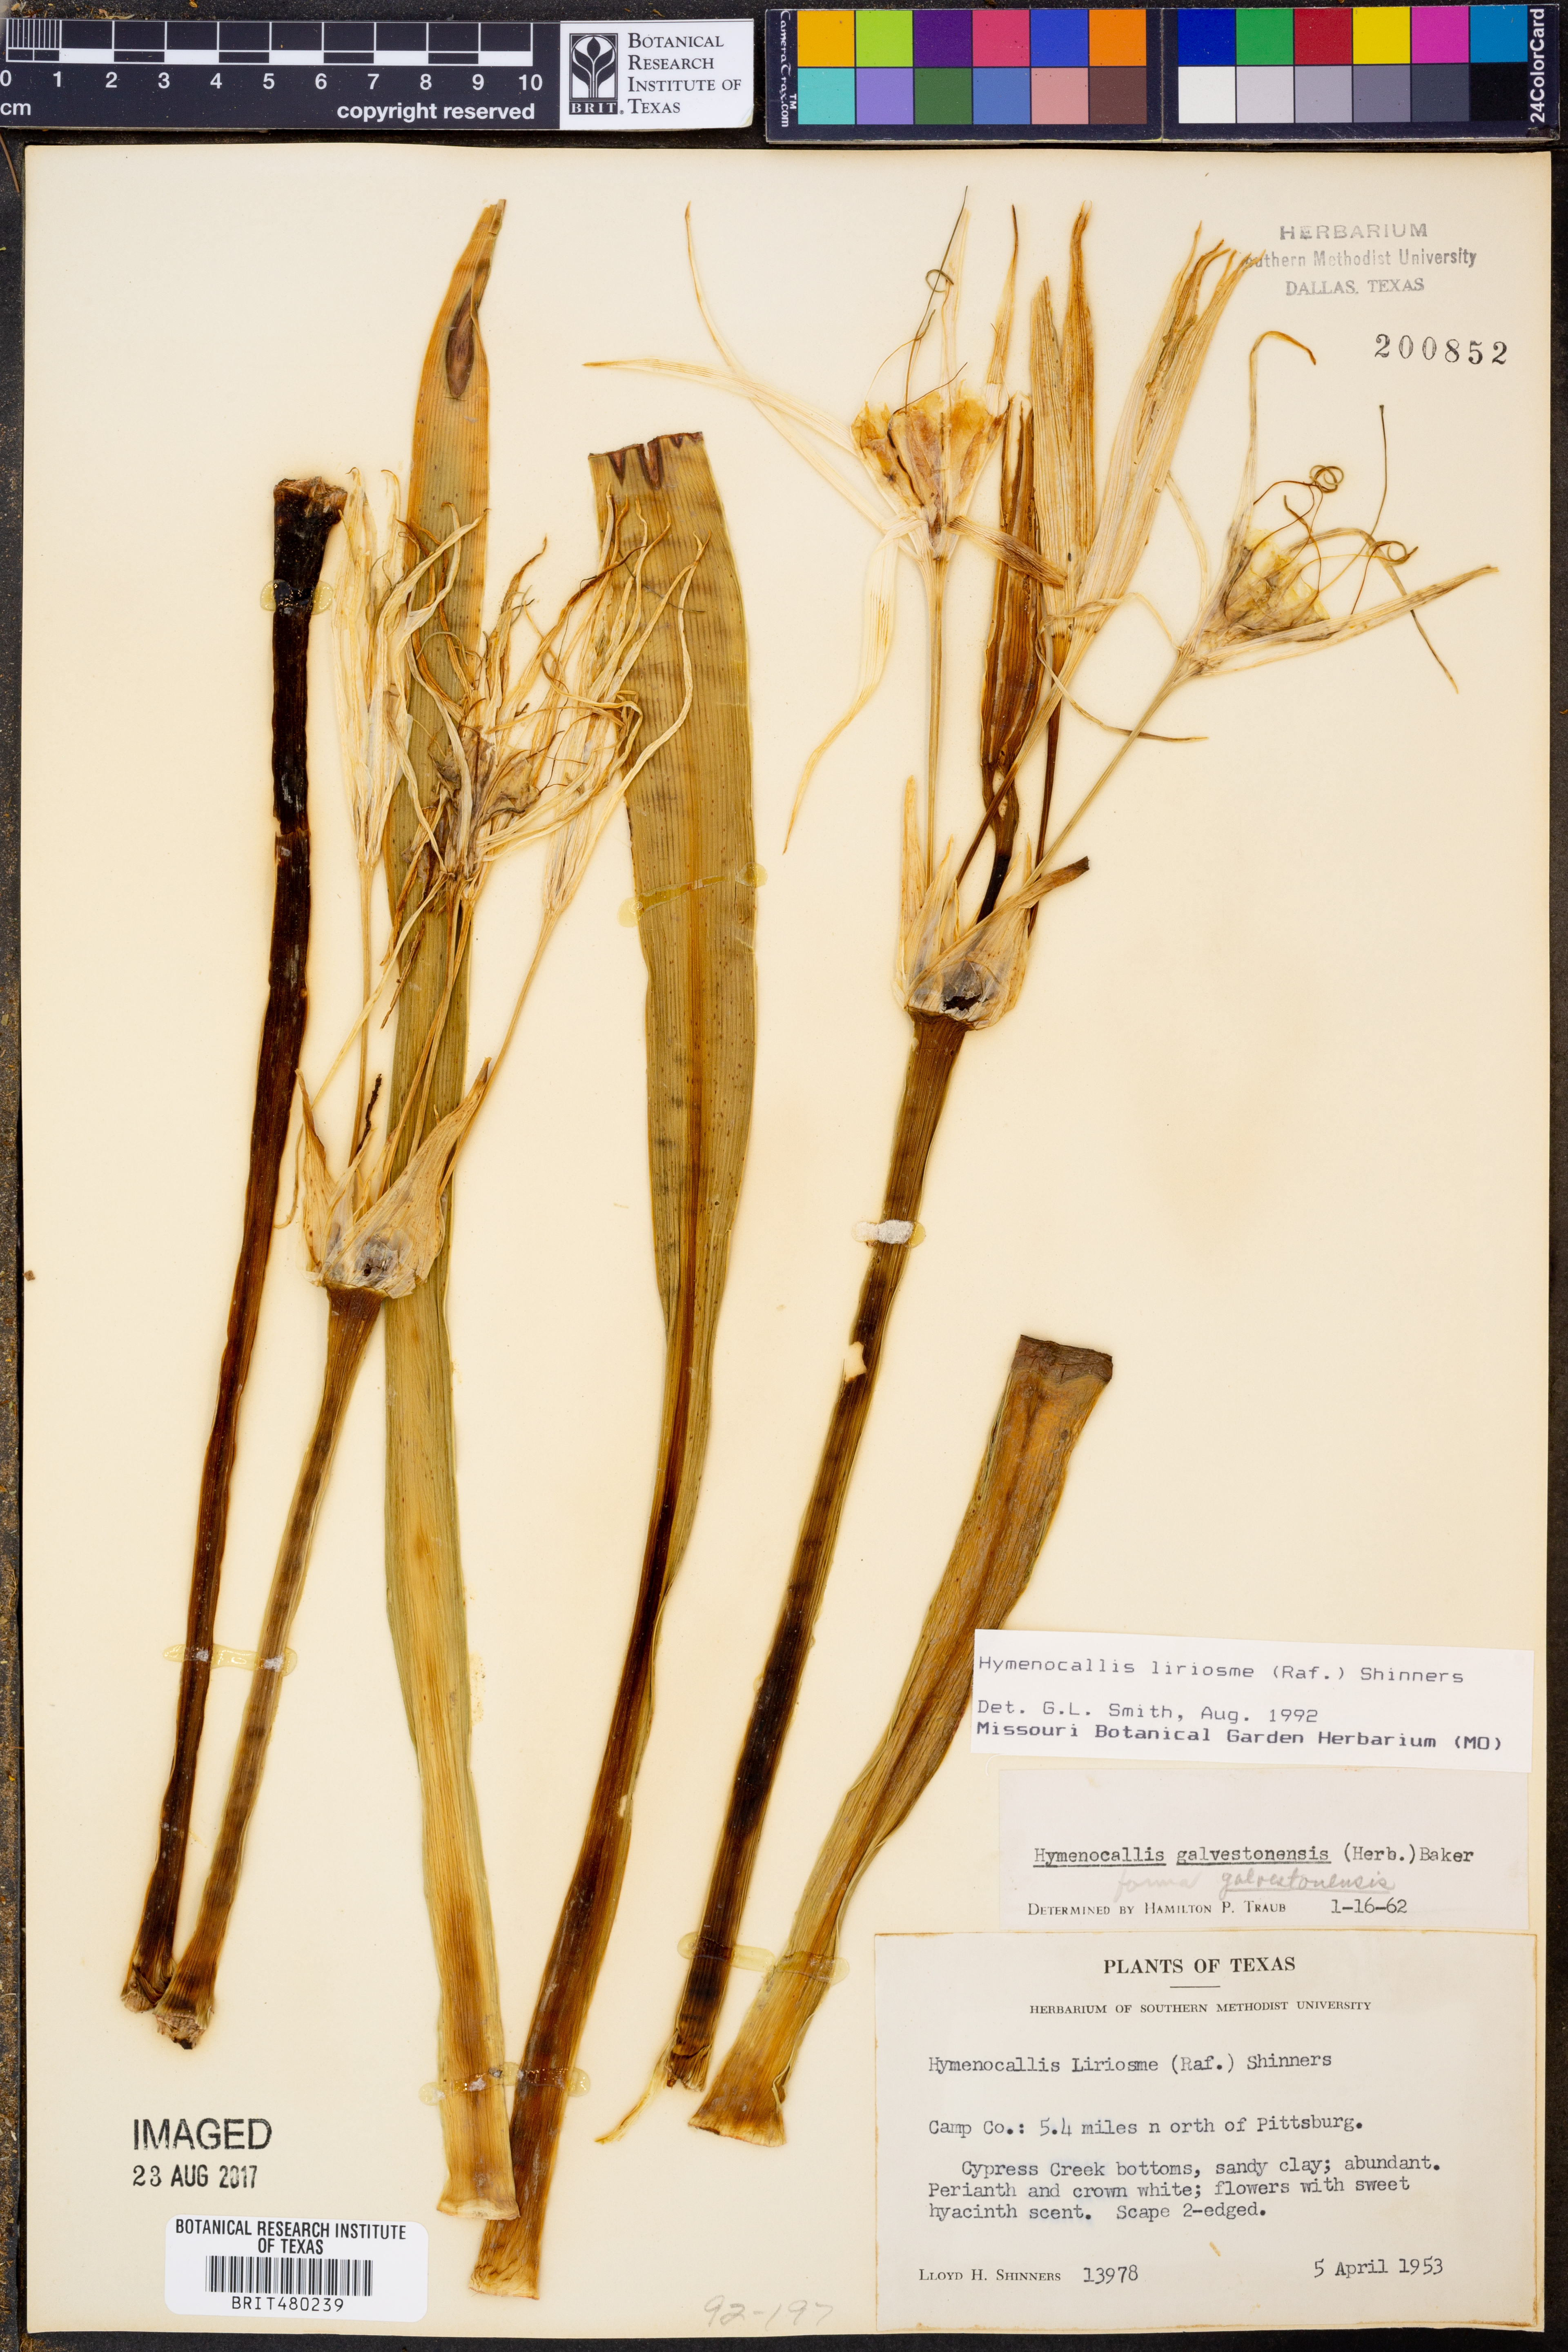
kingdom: Plantae
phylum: Tracheophyta
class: Liliopsida
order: Asparagales
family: Amaryllidaceae
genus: Hymenocallis
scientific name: Hymenocallis liriosme
